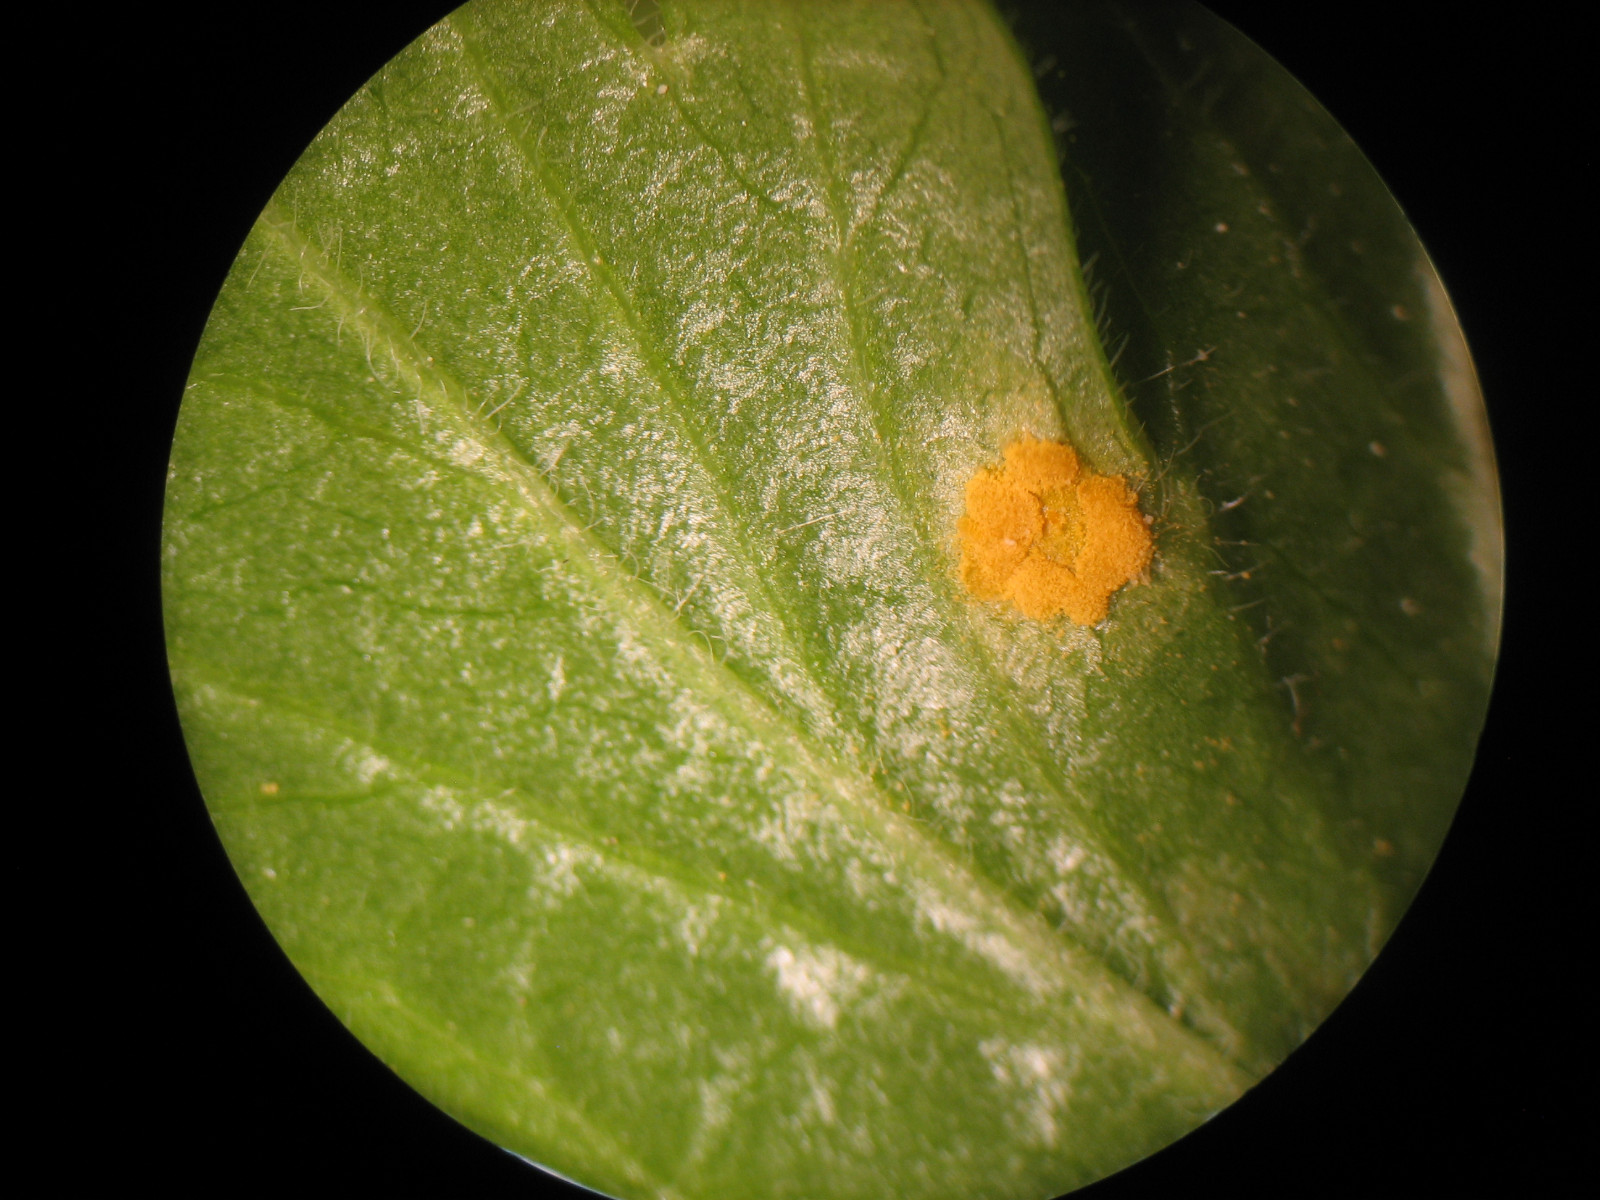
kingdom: Fungi
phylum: Basidiomycota
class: Pucciniomycetes
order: Pucciniales
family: Melampsoraceae
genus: Melampsora
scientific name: Melampsora epitea
